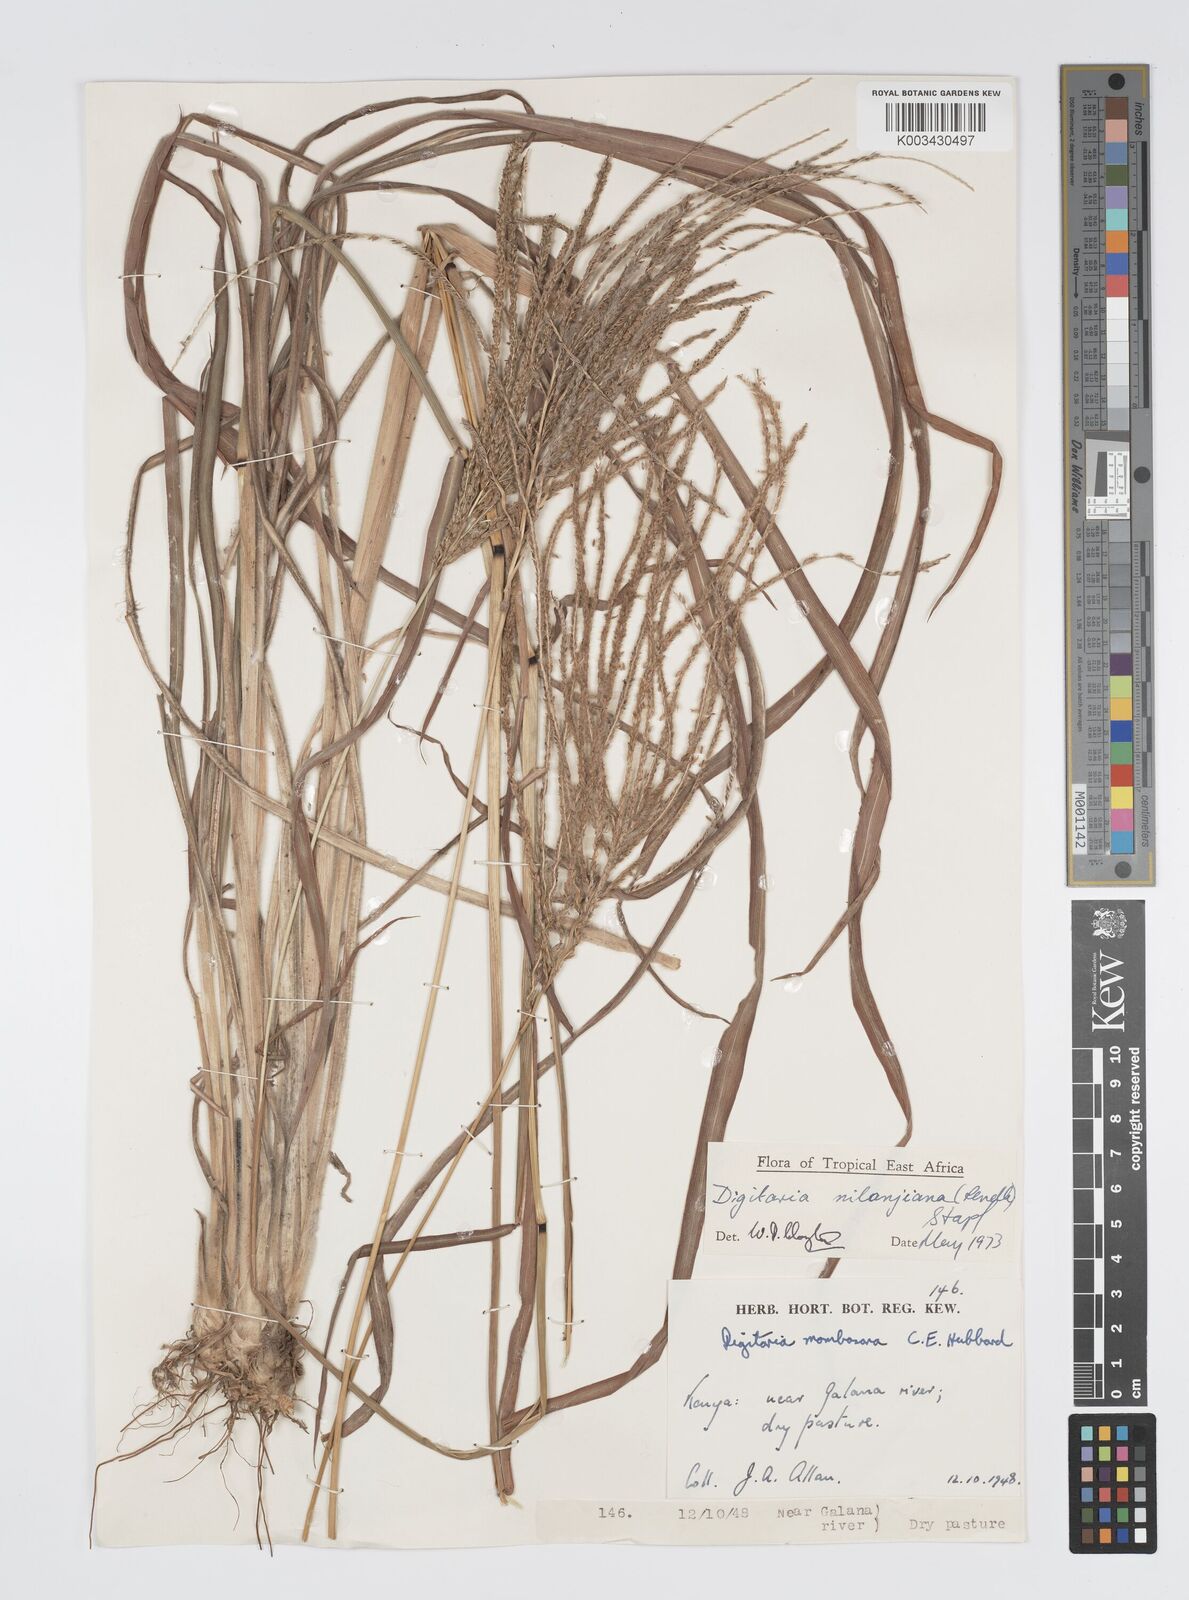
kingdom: Plantae
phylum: Tracheophyta
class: Liliopsida
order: Poales
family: Poaceae
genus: Digitaria
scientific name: Digitaria milanjiana
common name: Madagascar crabgrass
